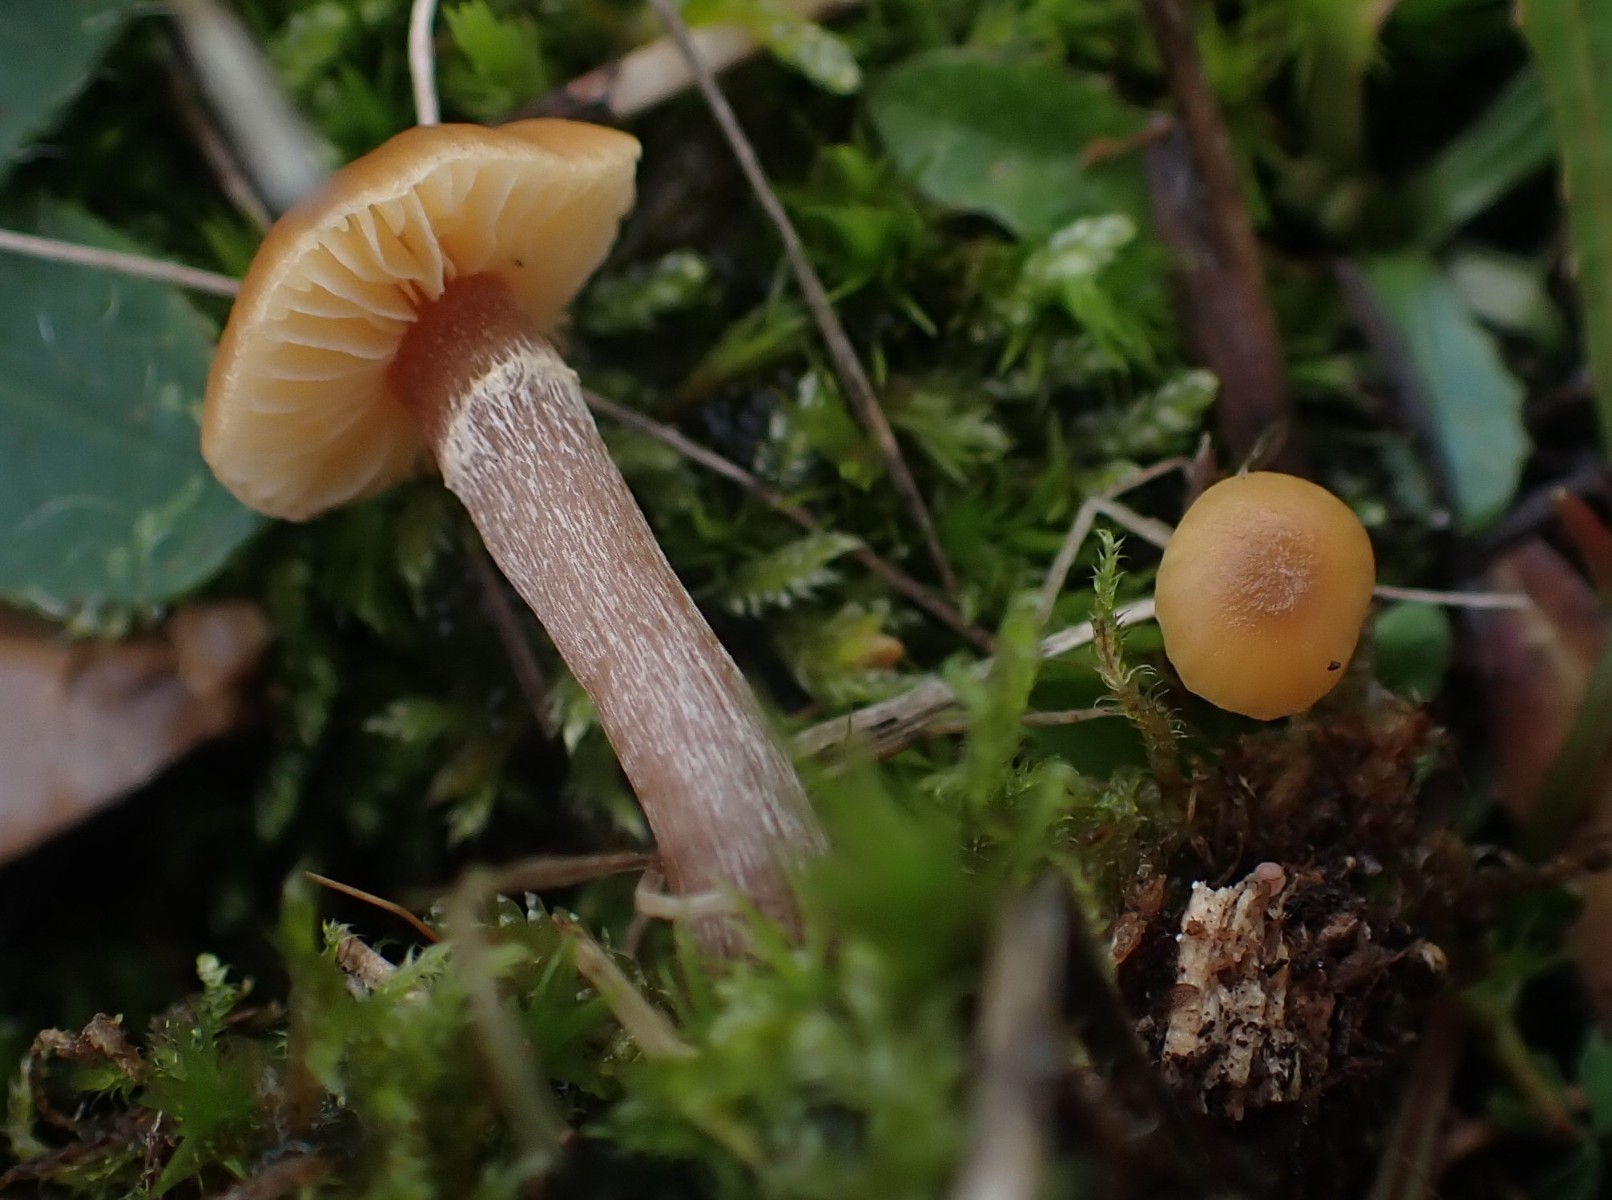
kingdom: Fungi
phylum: Basidiomycota
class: Agaricomycetes
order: Agaricales
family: Hymenogastraceae
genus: Galerina
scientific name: Galerina
